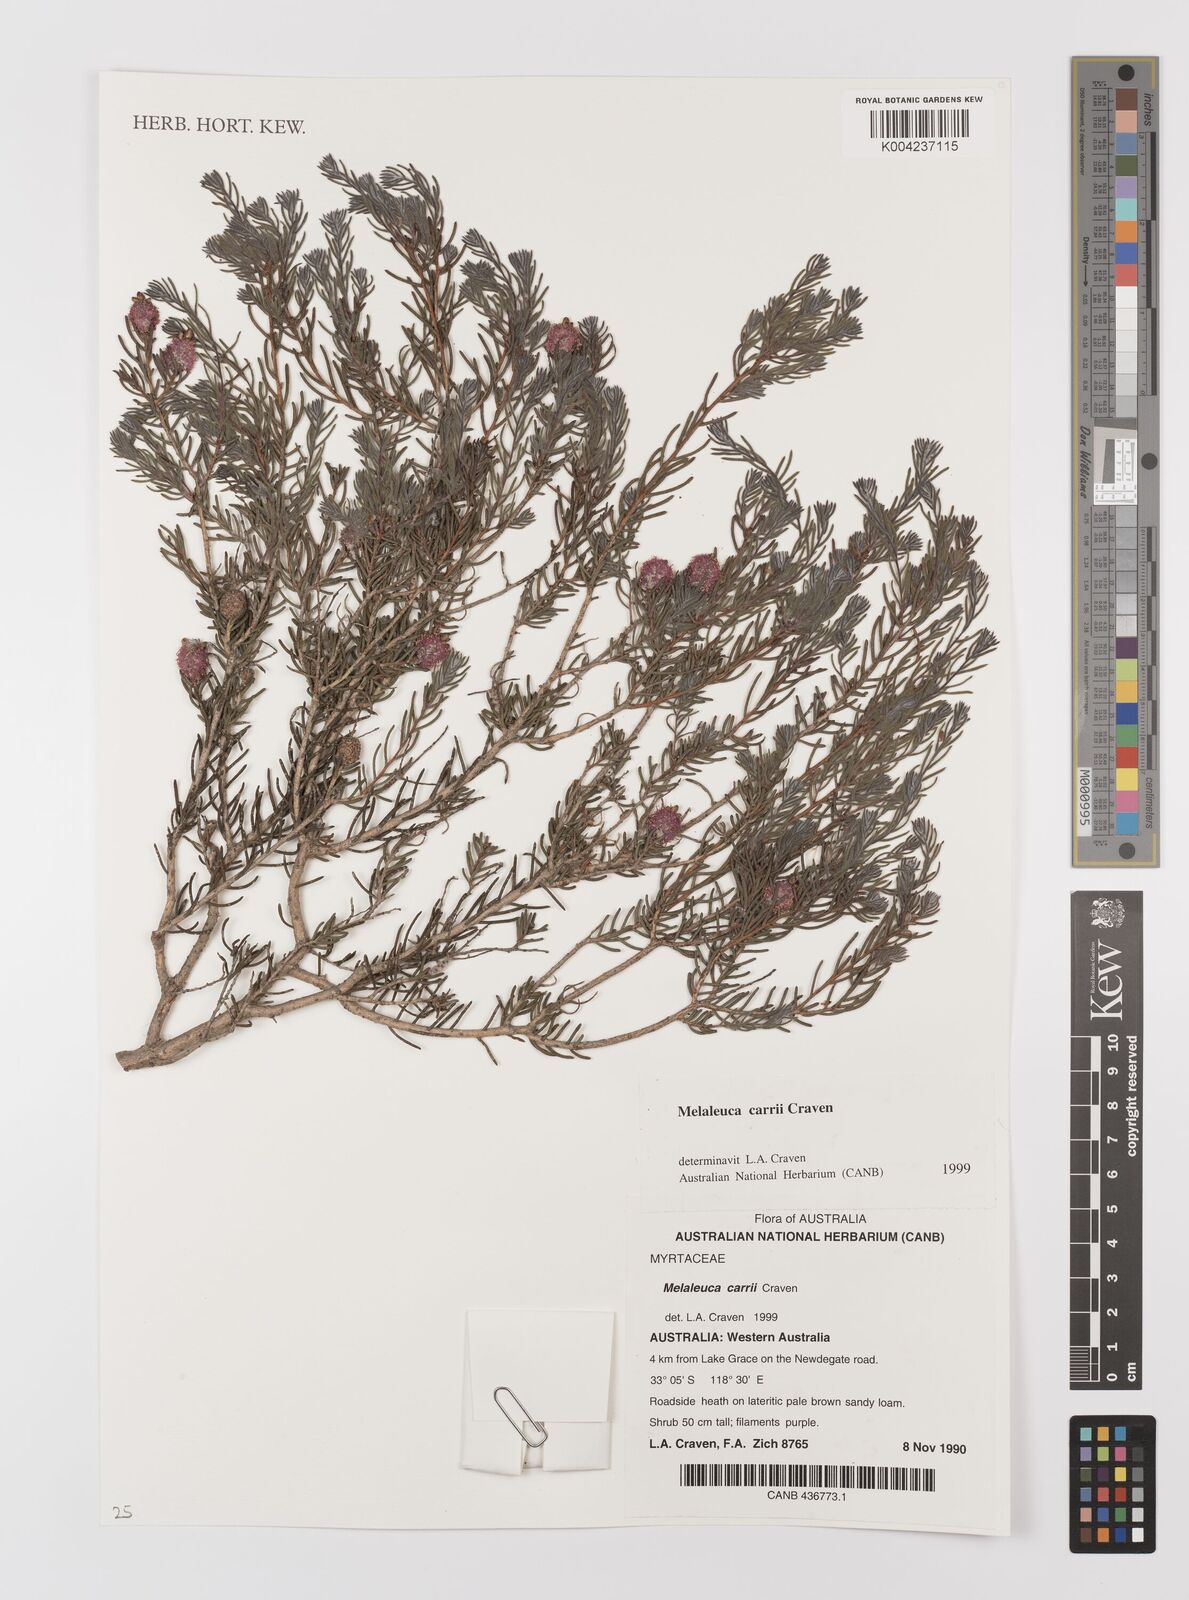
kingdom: Plantae
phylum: Tracheophyta
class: Magnoliopsida
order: Myrtales
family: Myrtaceae
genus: Melaleuca
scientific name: Melaleuca carrii
